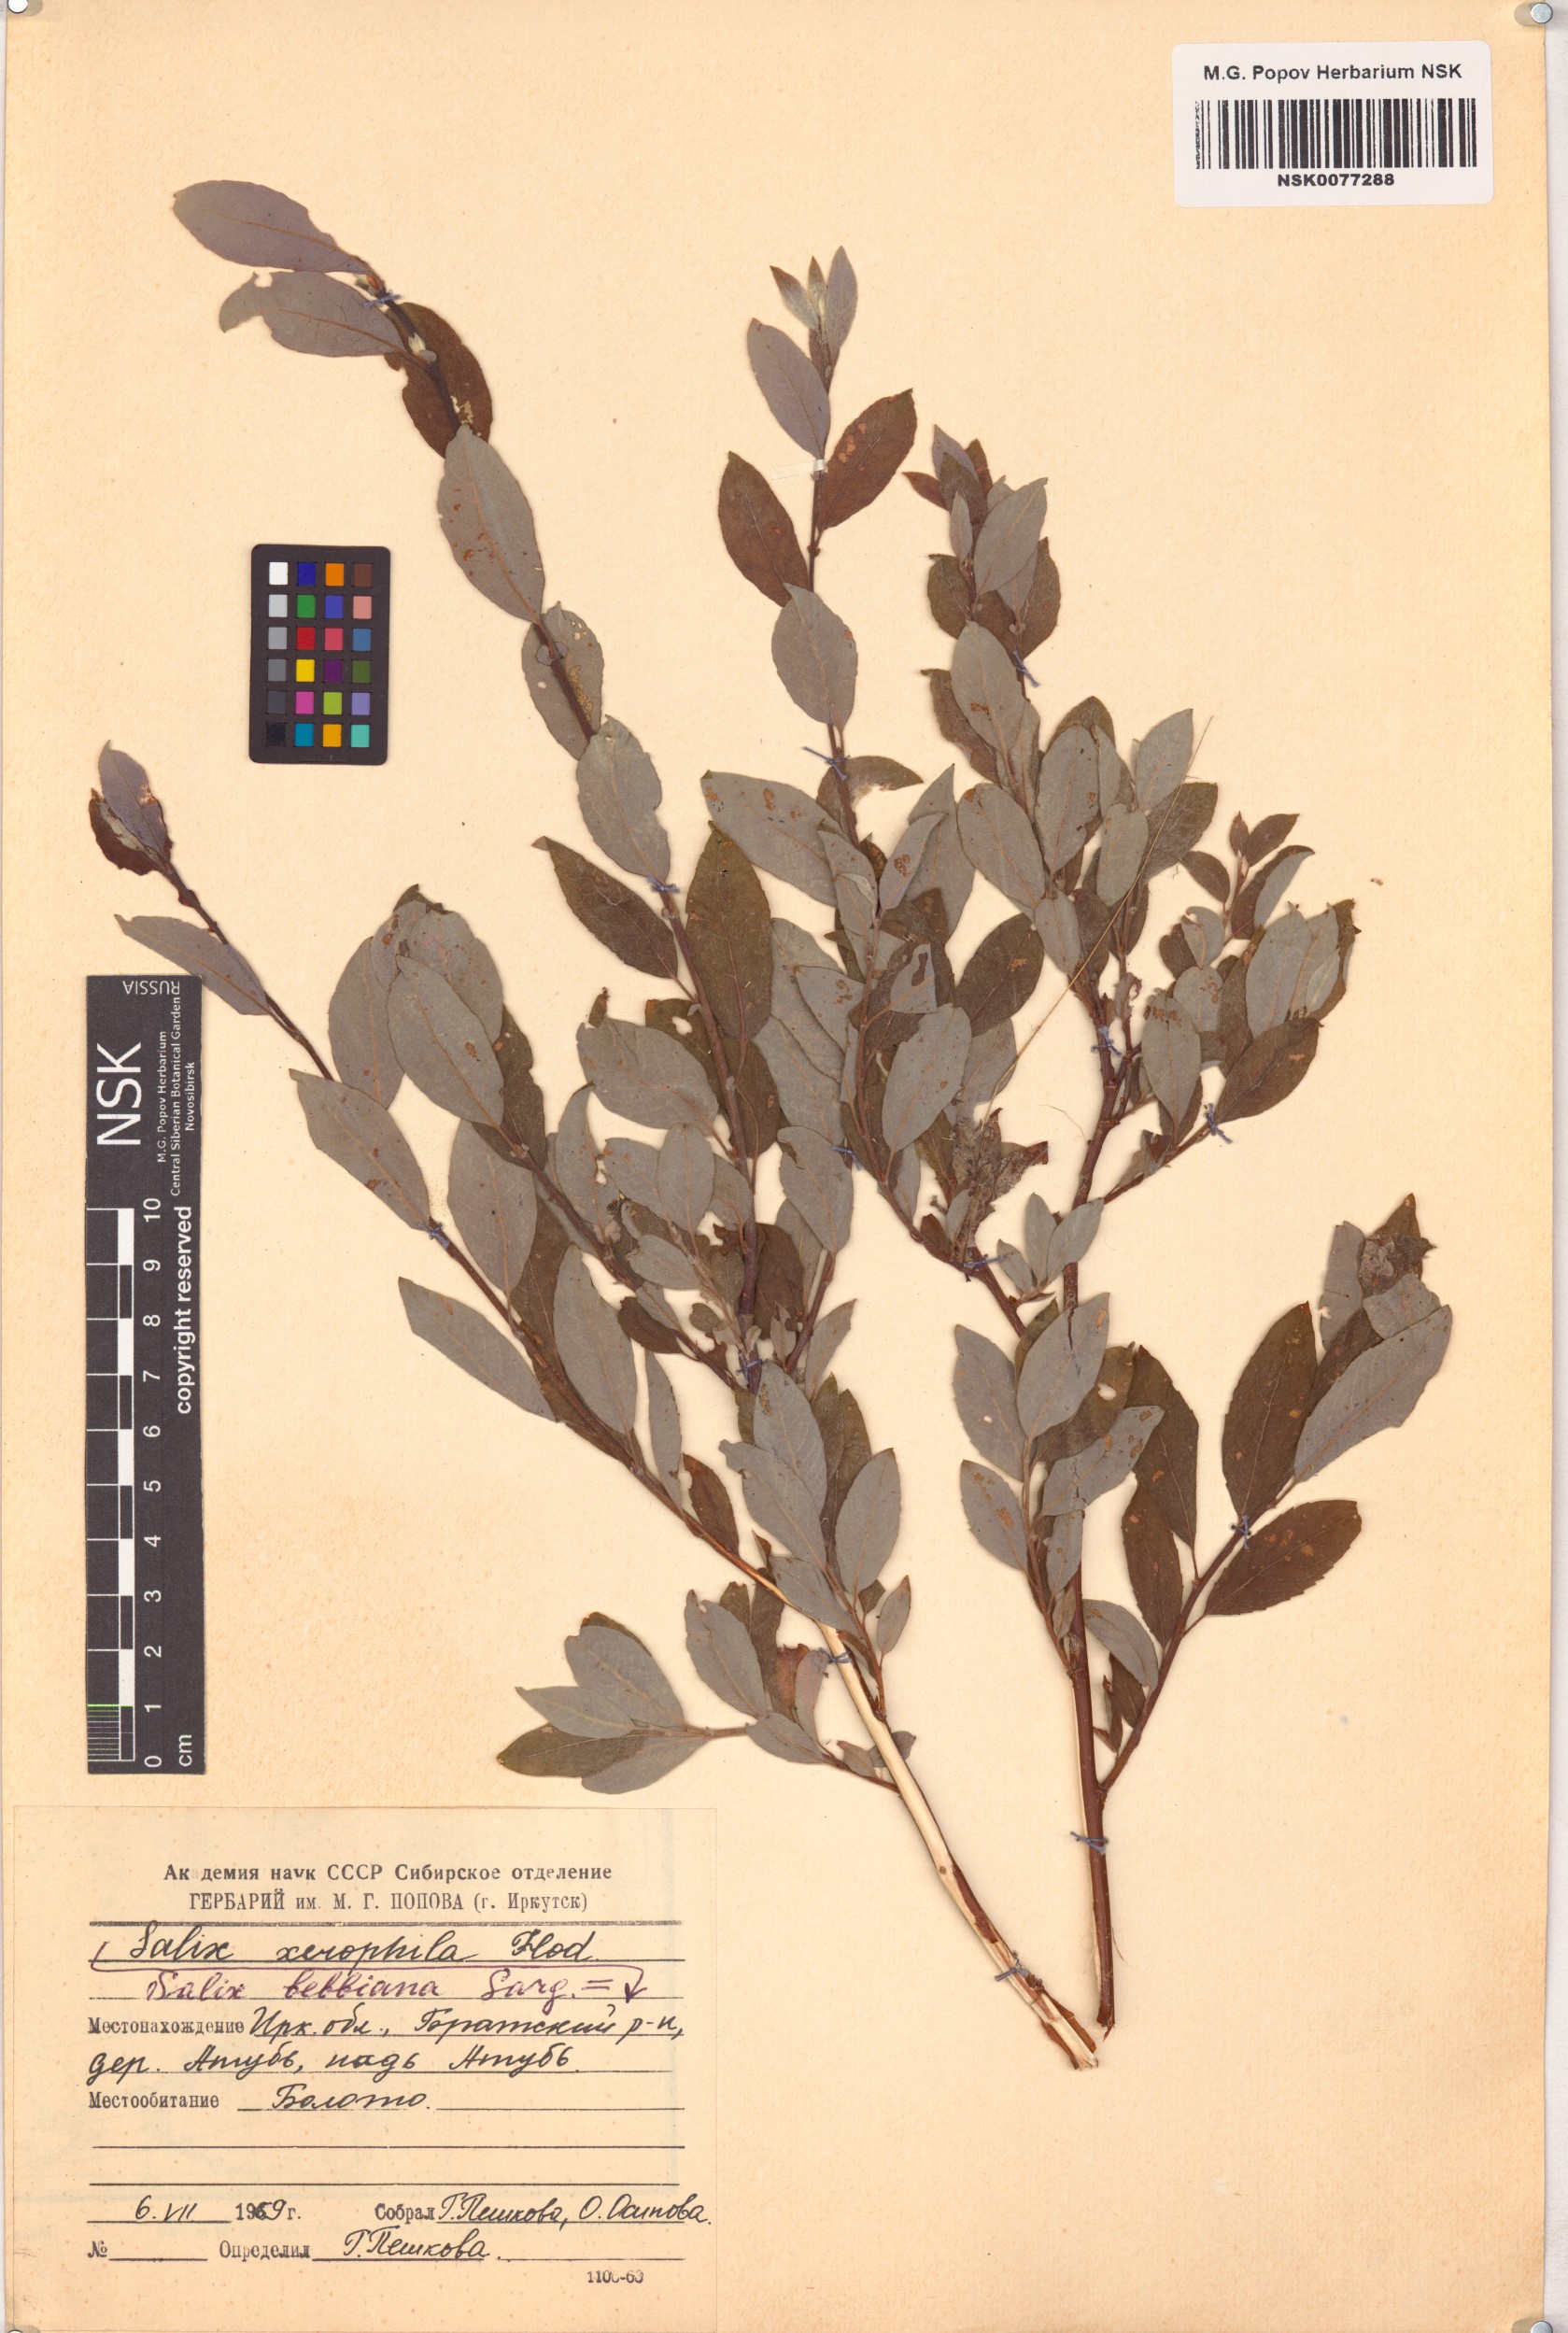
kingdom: Plantae
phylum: Tracheophyta
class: Magnoliopsida
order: Malpighiales
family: Salicaceae
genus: Salix
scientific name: Salix bebbiana
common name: Bebb's willow
